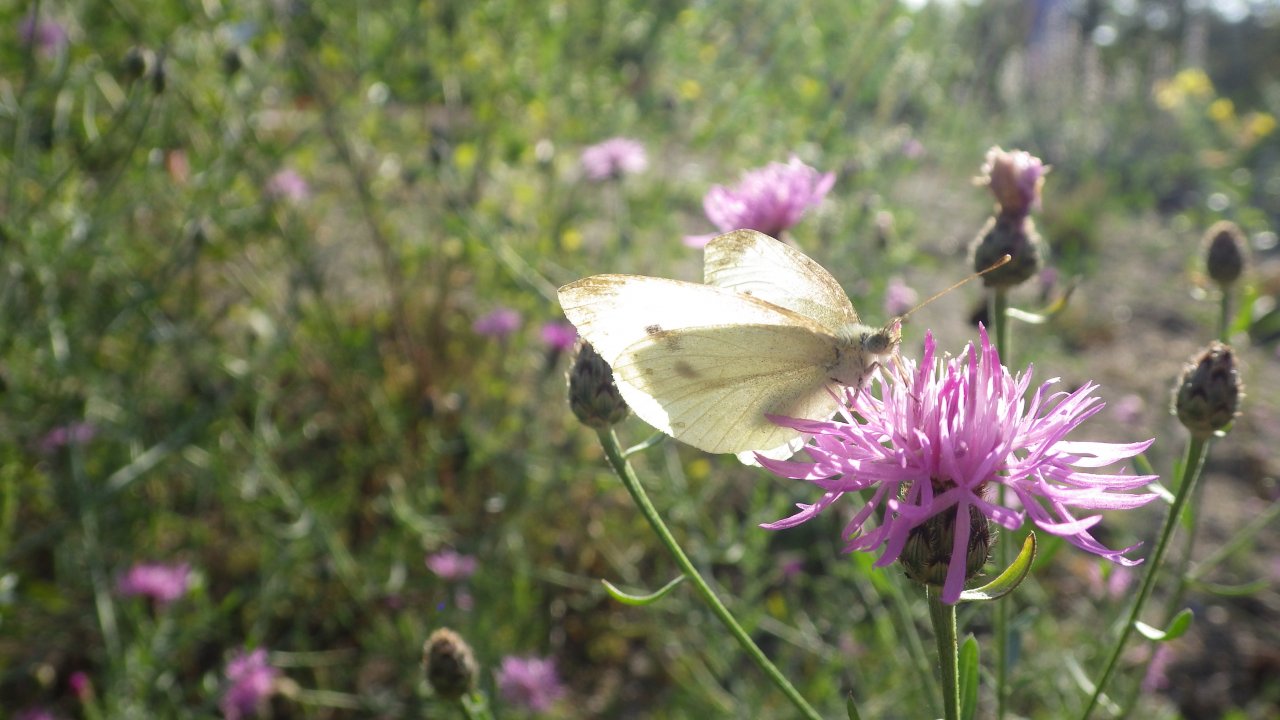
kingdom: Animalia
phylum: Arthropoda
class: Insecta
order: Lepidoptera
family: Pieridae
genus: Pieris
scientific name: Pieris rapae
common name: Cabbage White
